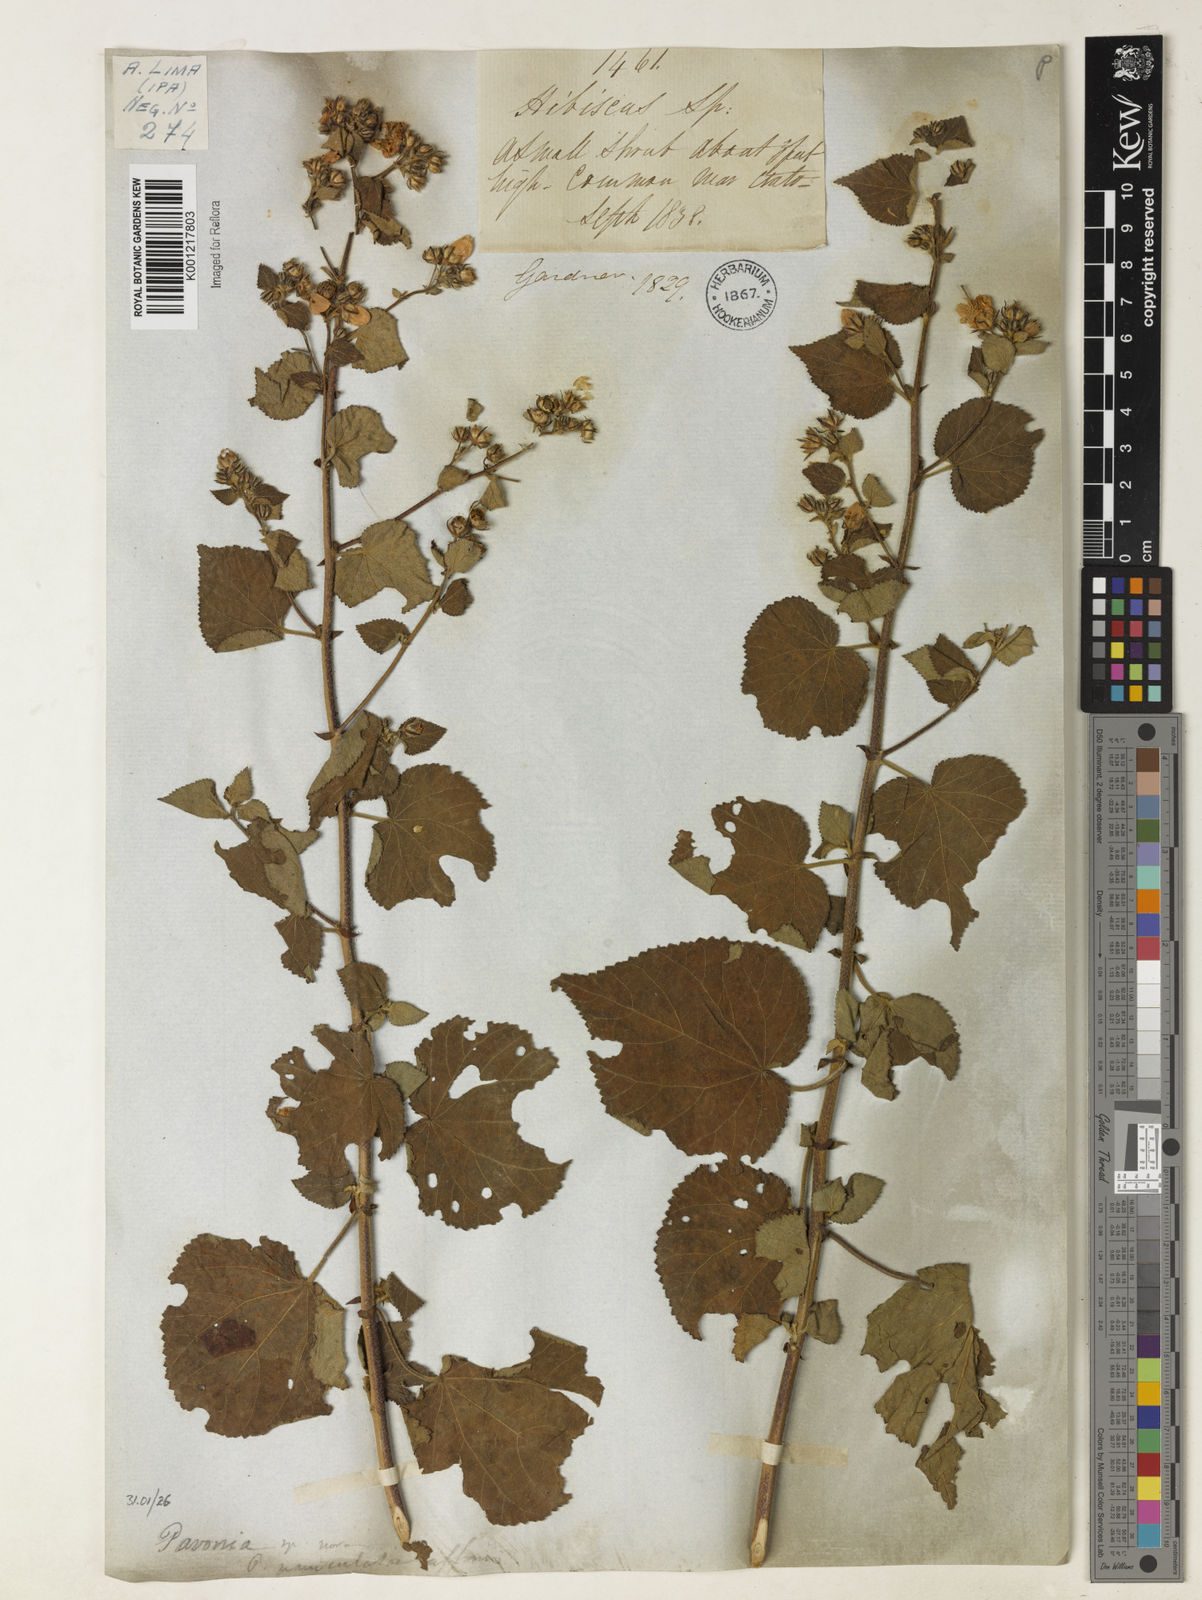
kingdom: Plantae
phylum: Tracheophyta
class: Magnoliopsida
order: Malvales
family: Malvaceae
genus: Pavonia
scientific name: Pavonia
